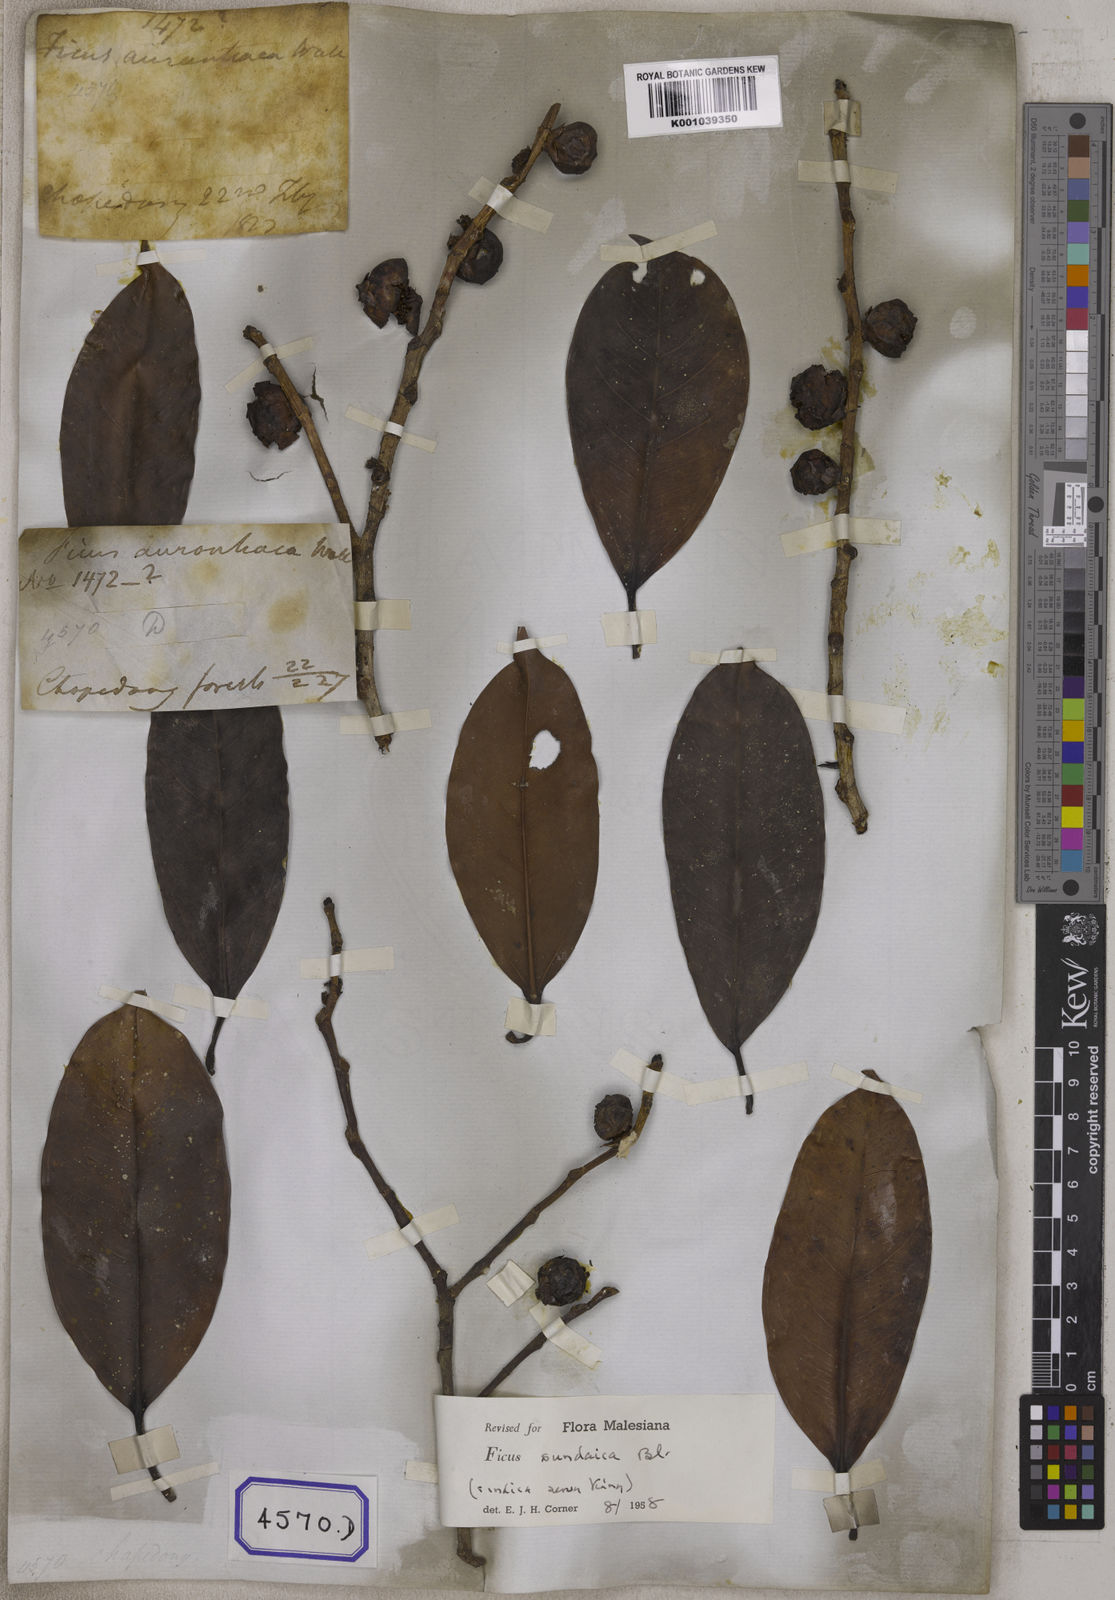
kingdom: Plantae
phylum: Tracheophyta
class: Magnoliopsida
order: Rosales
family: Moraceae
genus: Ficus
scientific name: Ficus
